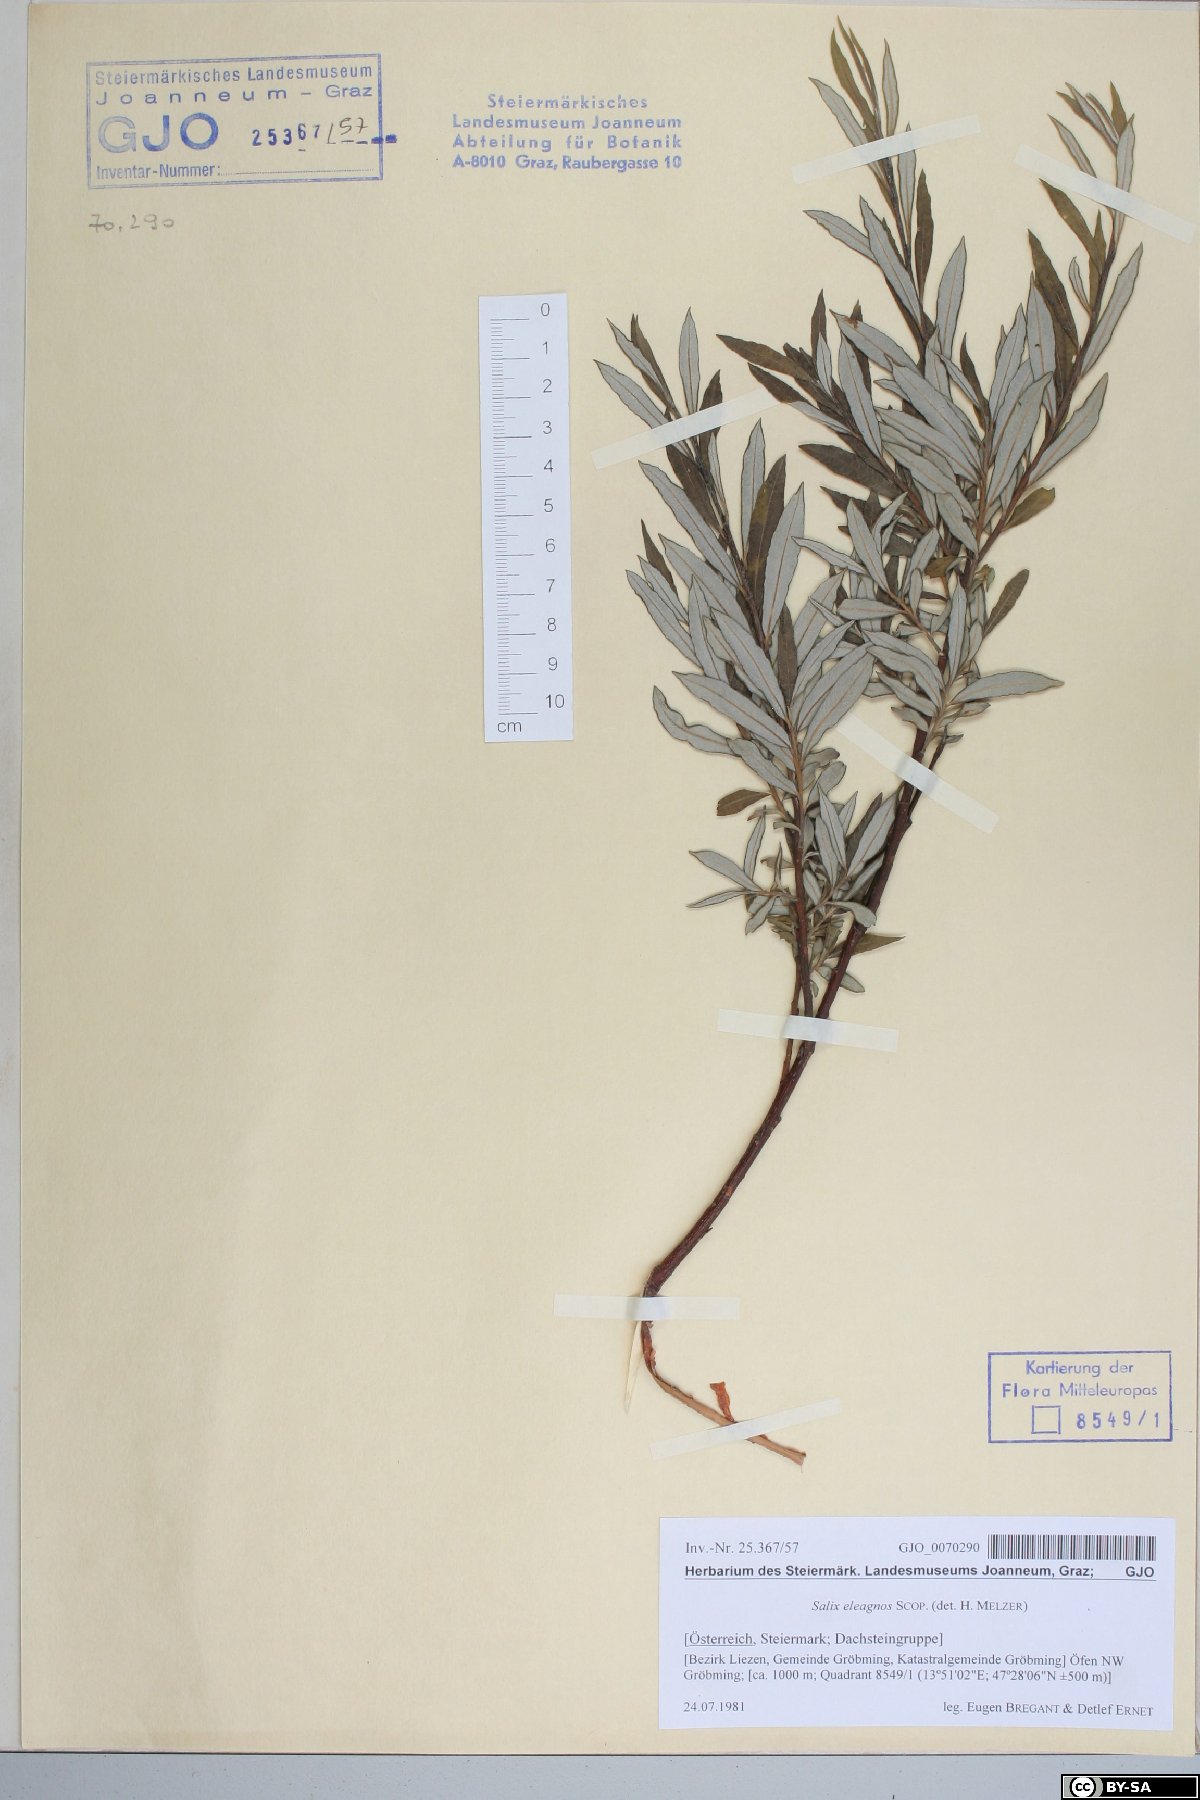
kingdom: Plantae
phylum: Tracheophyta
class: Magnoliopsida
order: Malpighiales
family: Salicaceae
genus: Salix
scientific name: Salix eleagnos
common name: Elaeagnus willow
